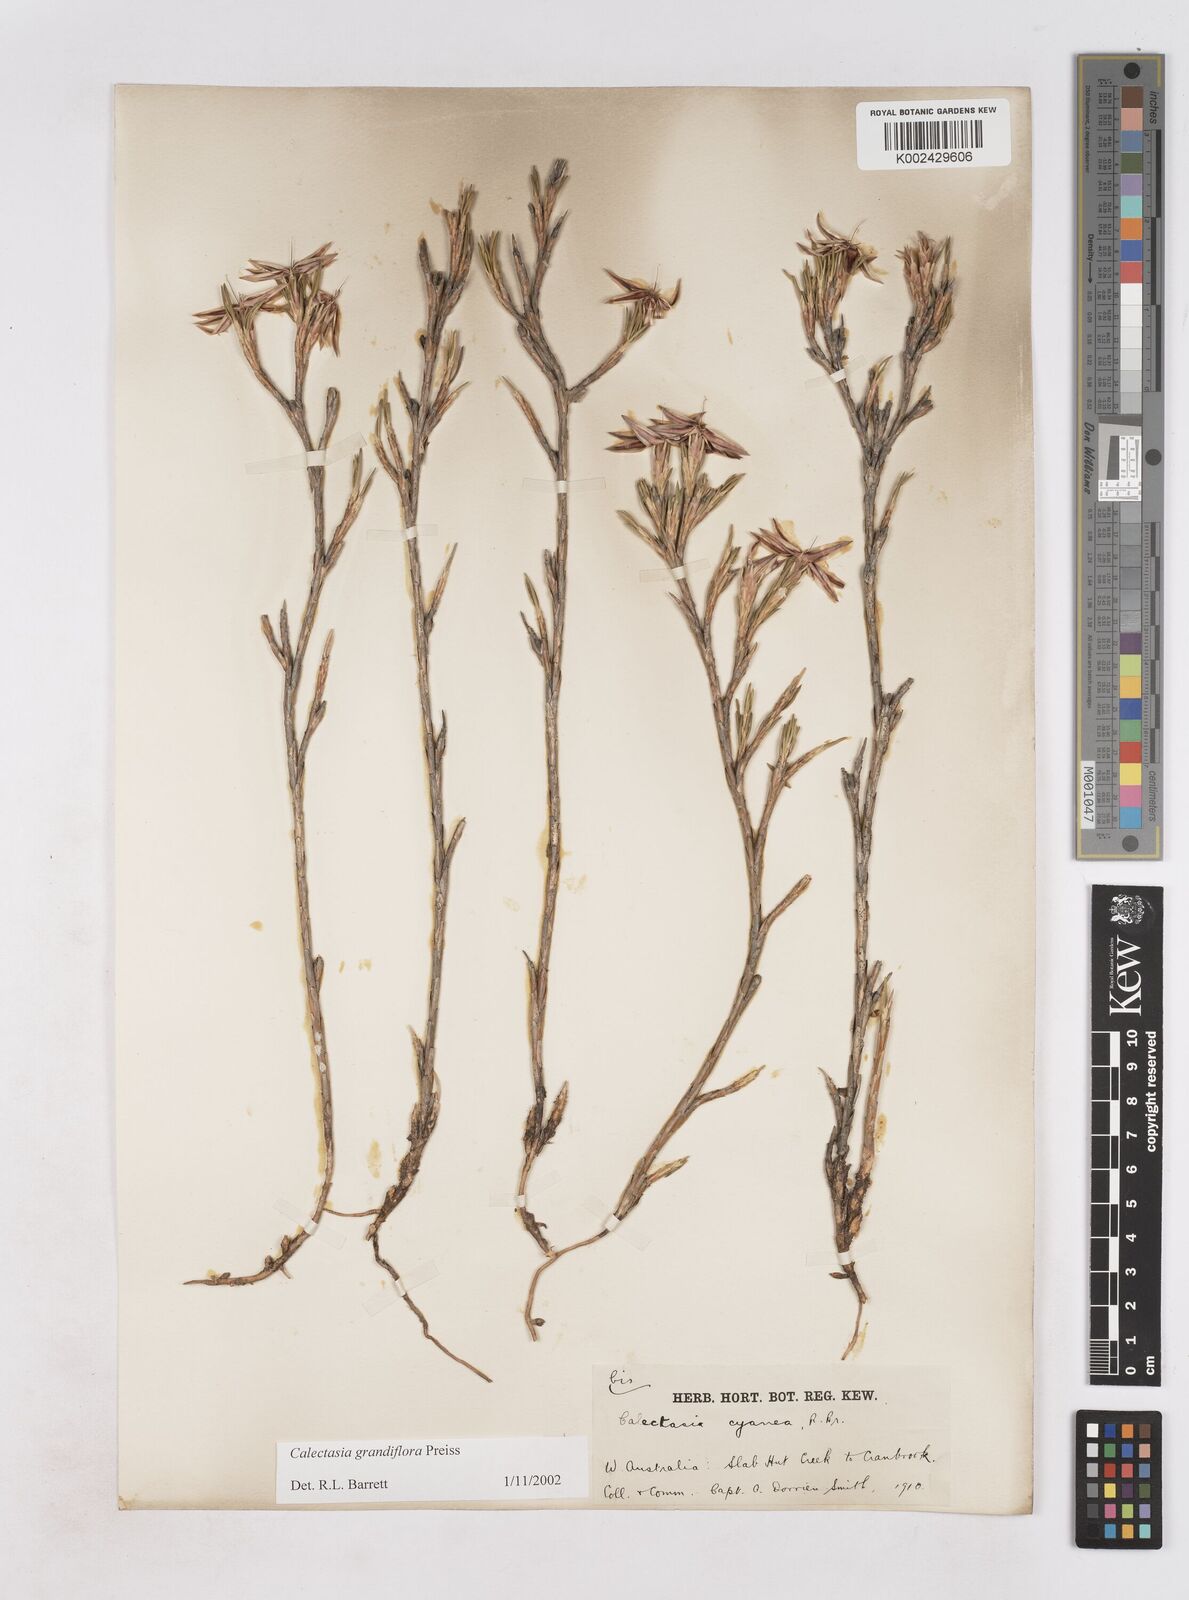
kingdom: Plantae
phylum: Tracheophyta
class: Liliopsida
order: Arecales
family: Dasypogonaceae
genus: Calectasia
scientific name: Calectasia grandiflora
